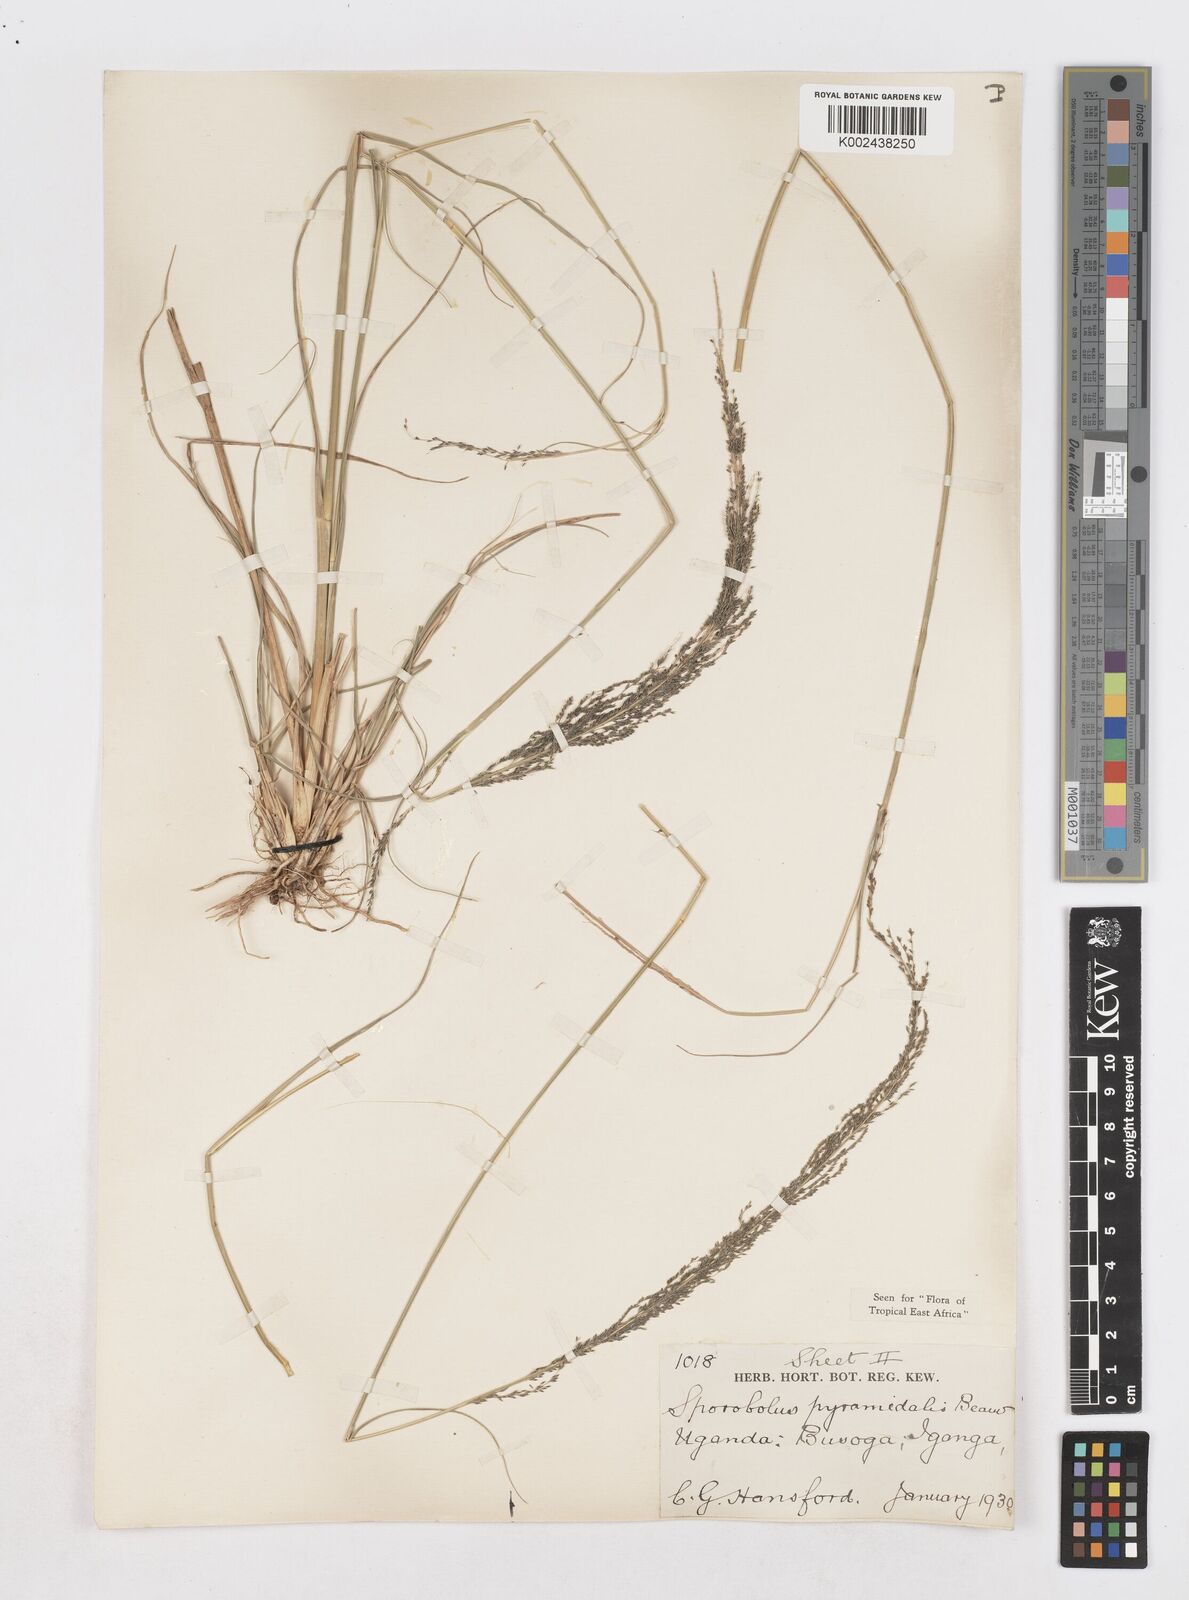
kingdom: Plantae
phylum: Tracheophyta
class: Liliopsida
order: Poales
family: Poaceae
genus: Sporobolus
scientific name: Sporobolus pyramidalis
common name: West indian dropseed
